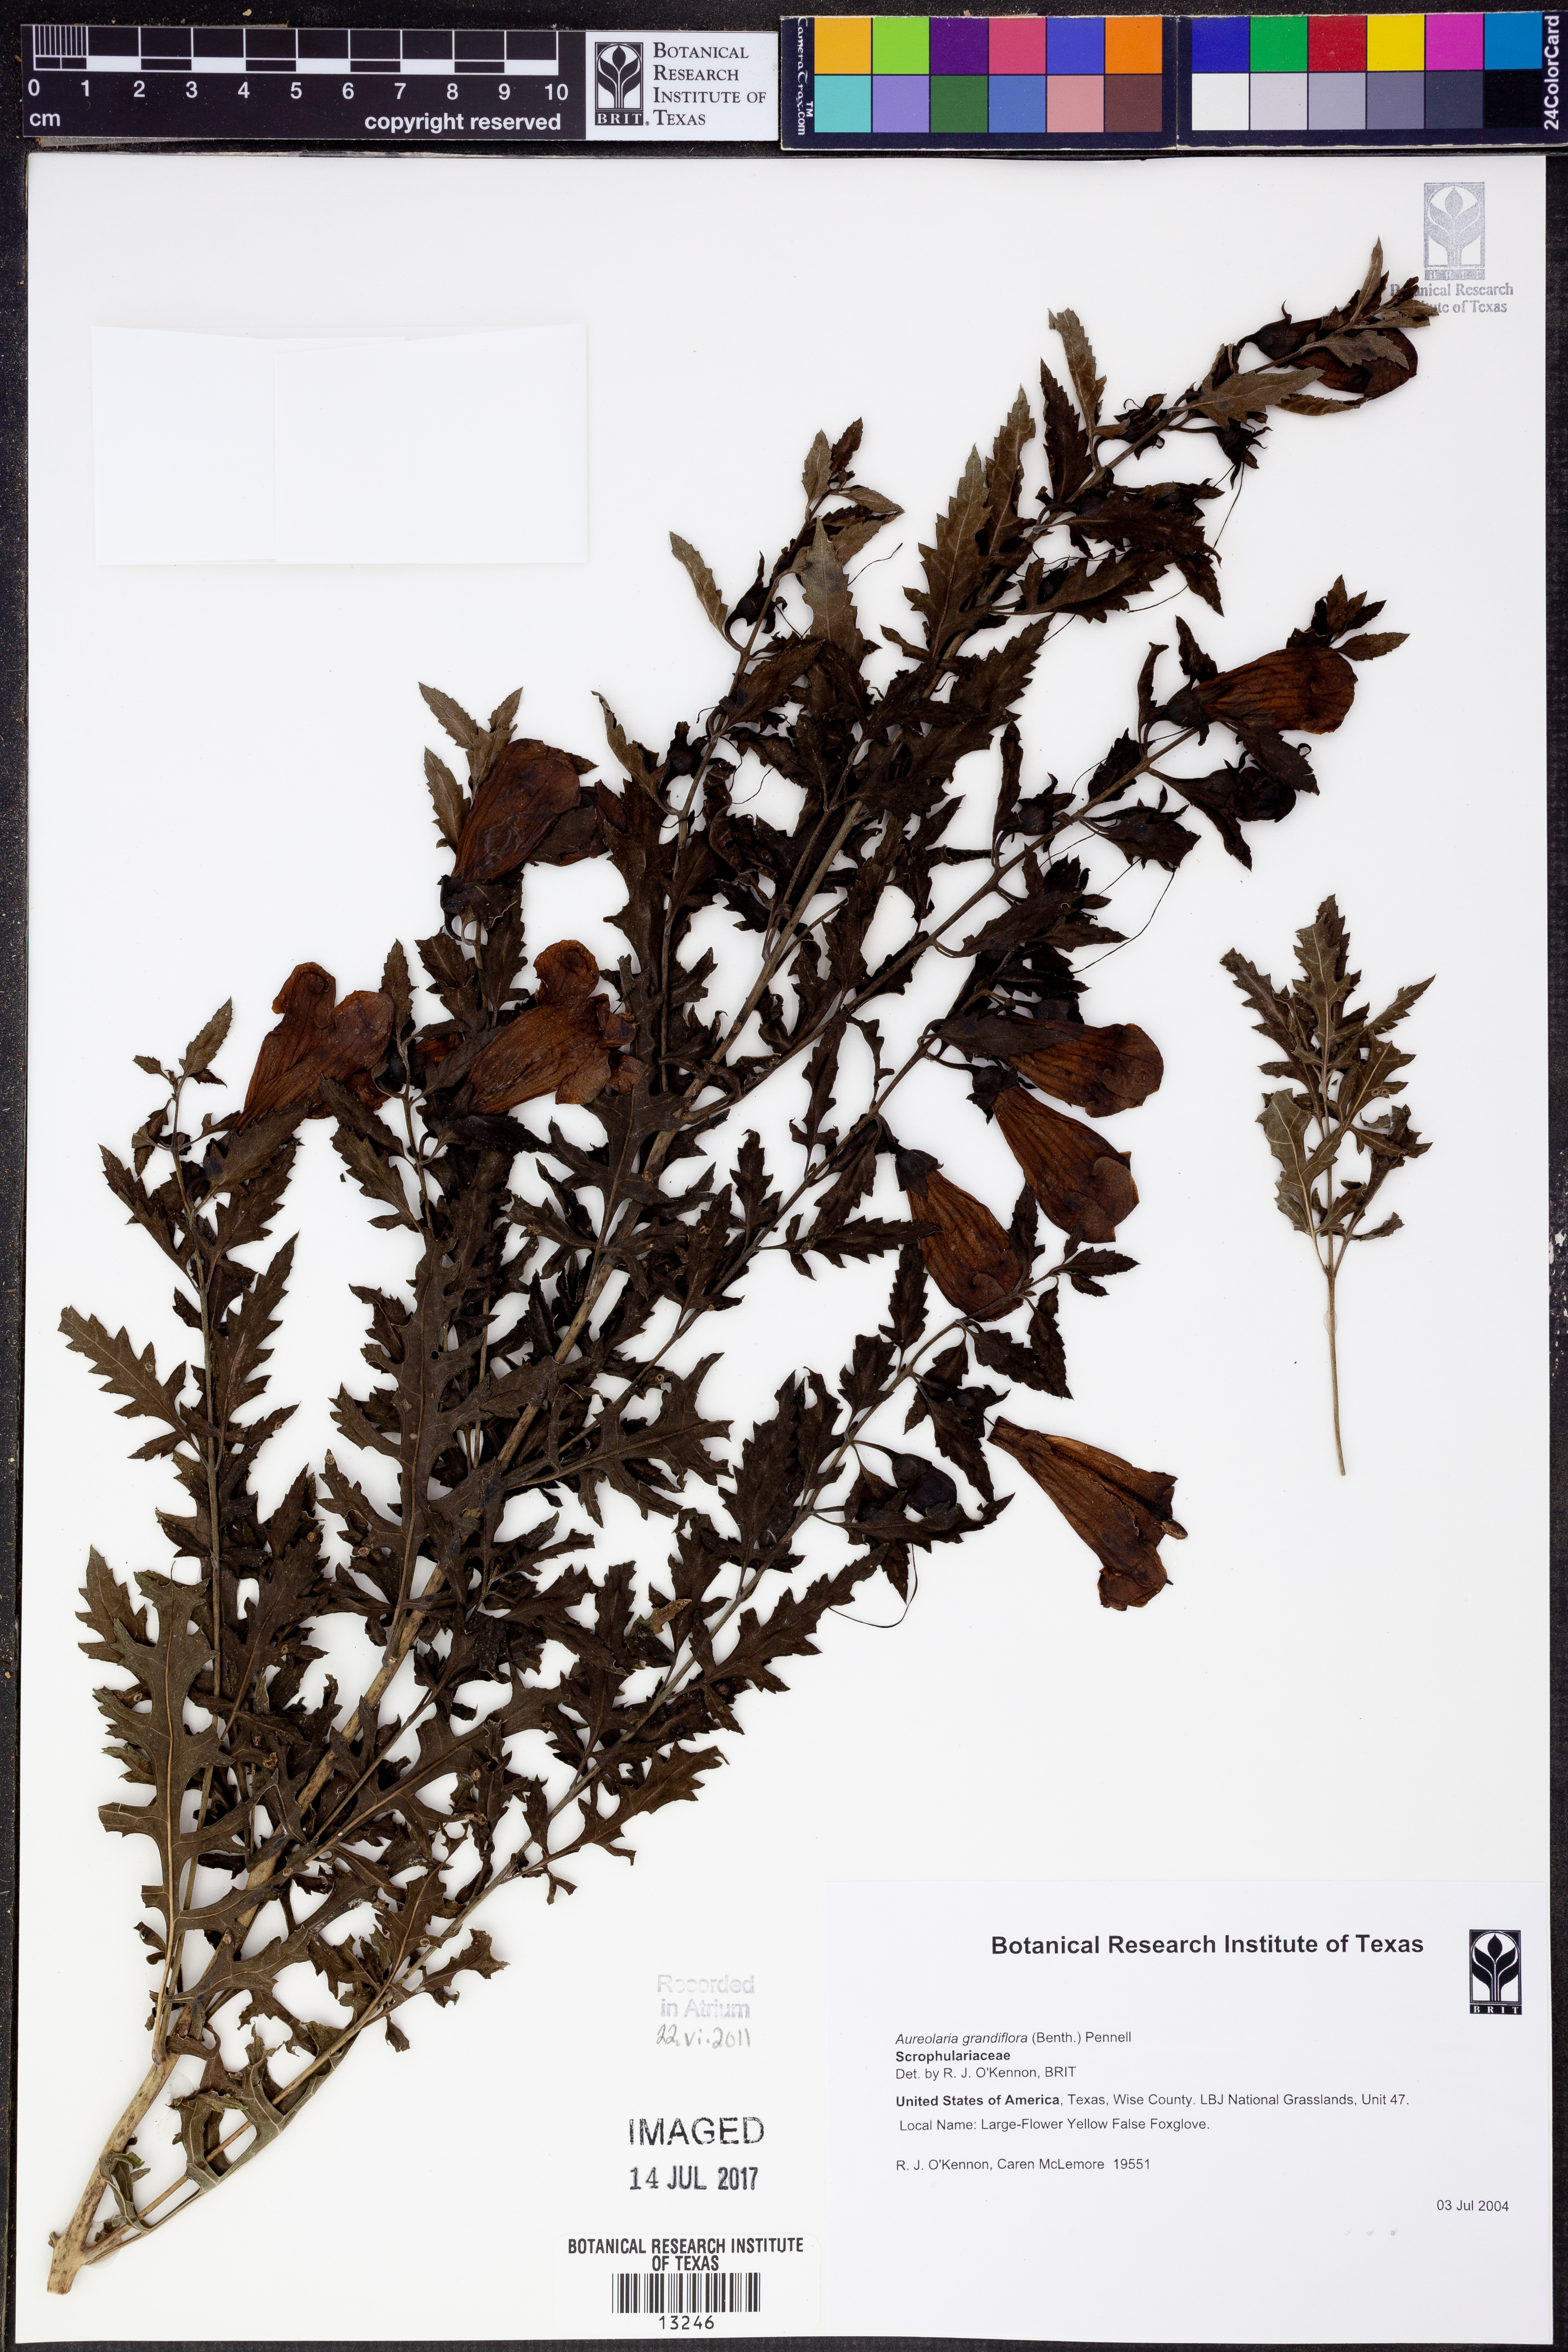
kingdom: Plantae
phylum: Tracheophyta
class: Magnoliopsida
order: Lamiales
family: Orobanchaceae
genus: Aureolaria
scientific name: Aureolaria grandiflora
